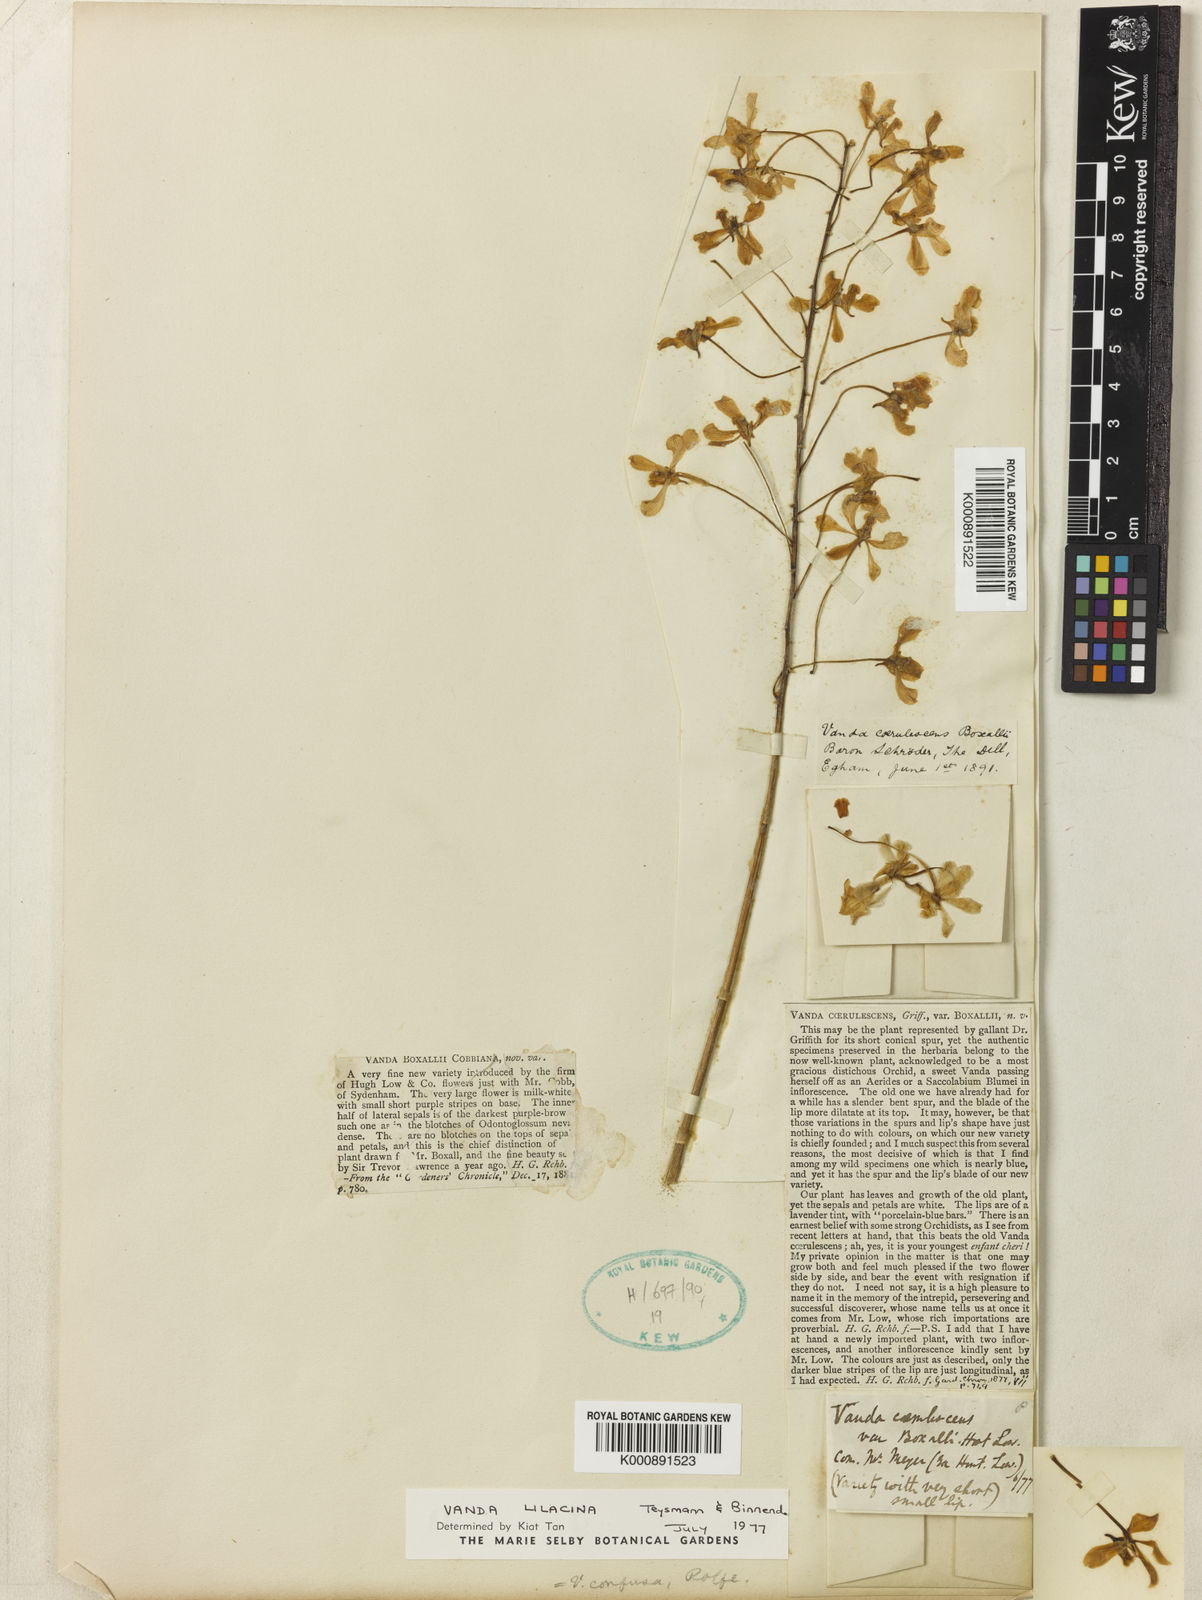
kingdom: Plantae
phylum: Tracheophyta
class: Liliopsida
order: Asparagales
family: Orchidaceae
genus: Vanda
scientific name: Vanda confusa
